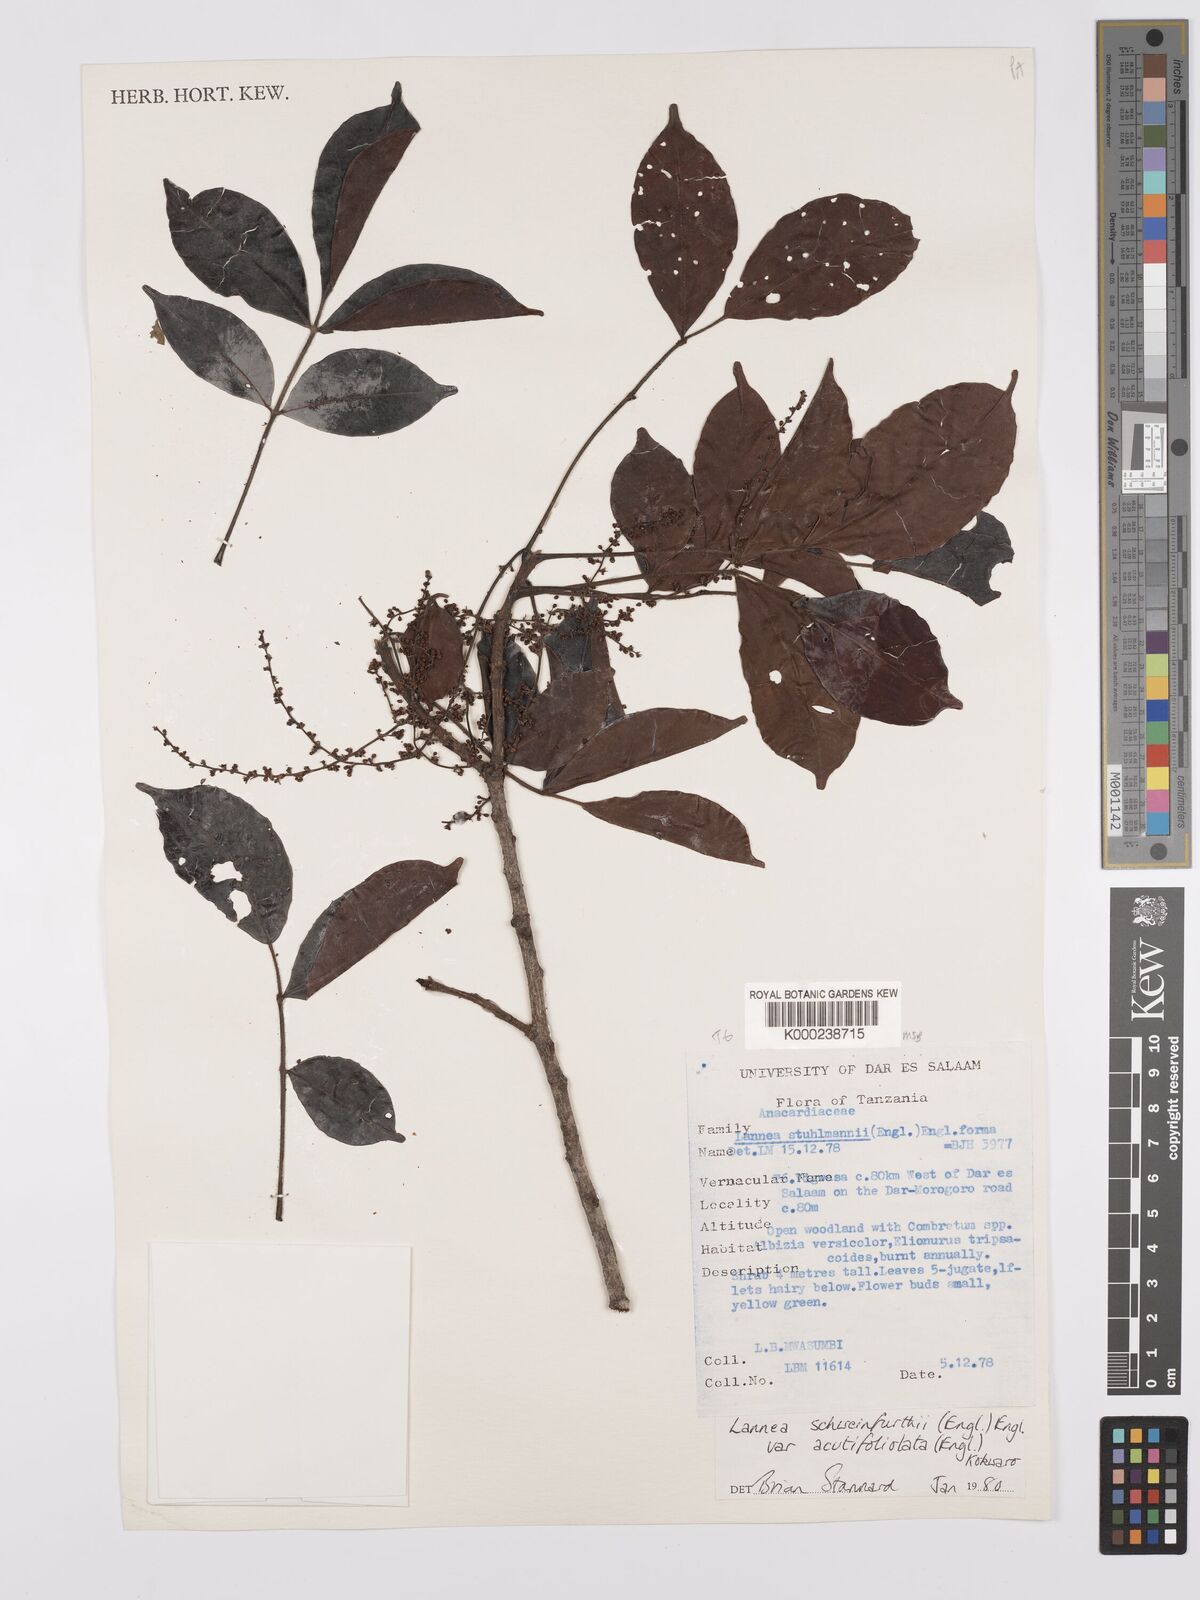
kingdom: Plantae
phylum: Tracheophyta
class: Magnoliopsida
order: Sapindales
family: Anacardiaceae
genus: Lannea
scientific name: Lannea schweinfurthii
